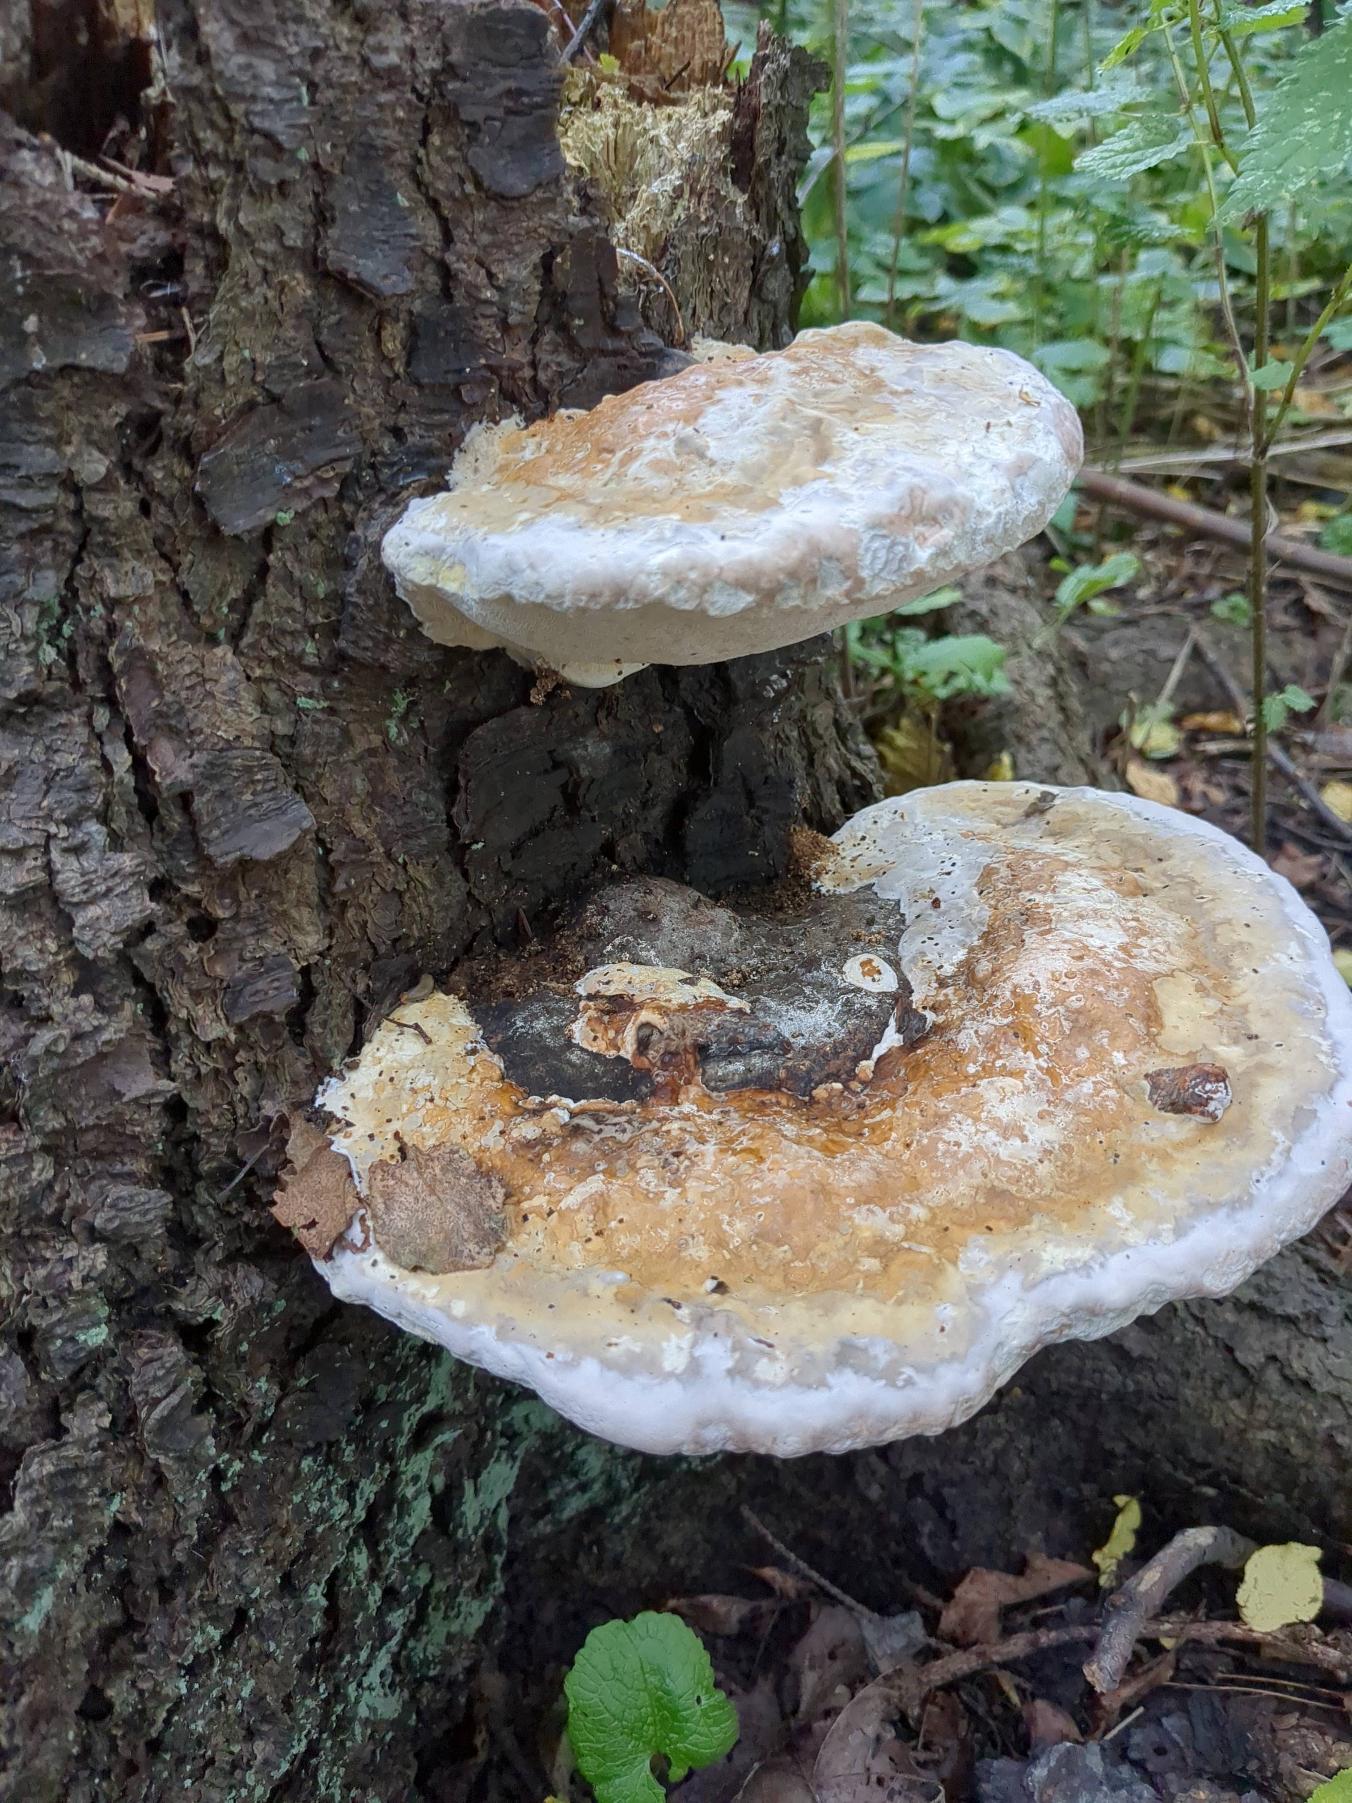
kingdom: Fungi
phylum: Basidiomycota
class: Agaricomycetes
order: Polyporales
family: Fomitopsidaceae
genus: Fomitopsis
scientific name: Fomitopsis pinicola
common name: Randbæltet hovporesvamp
